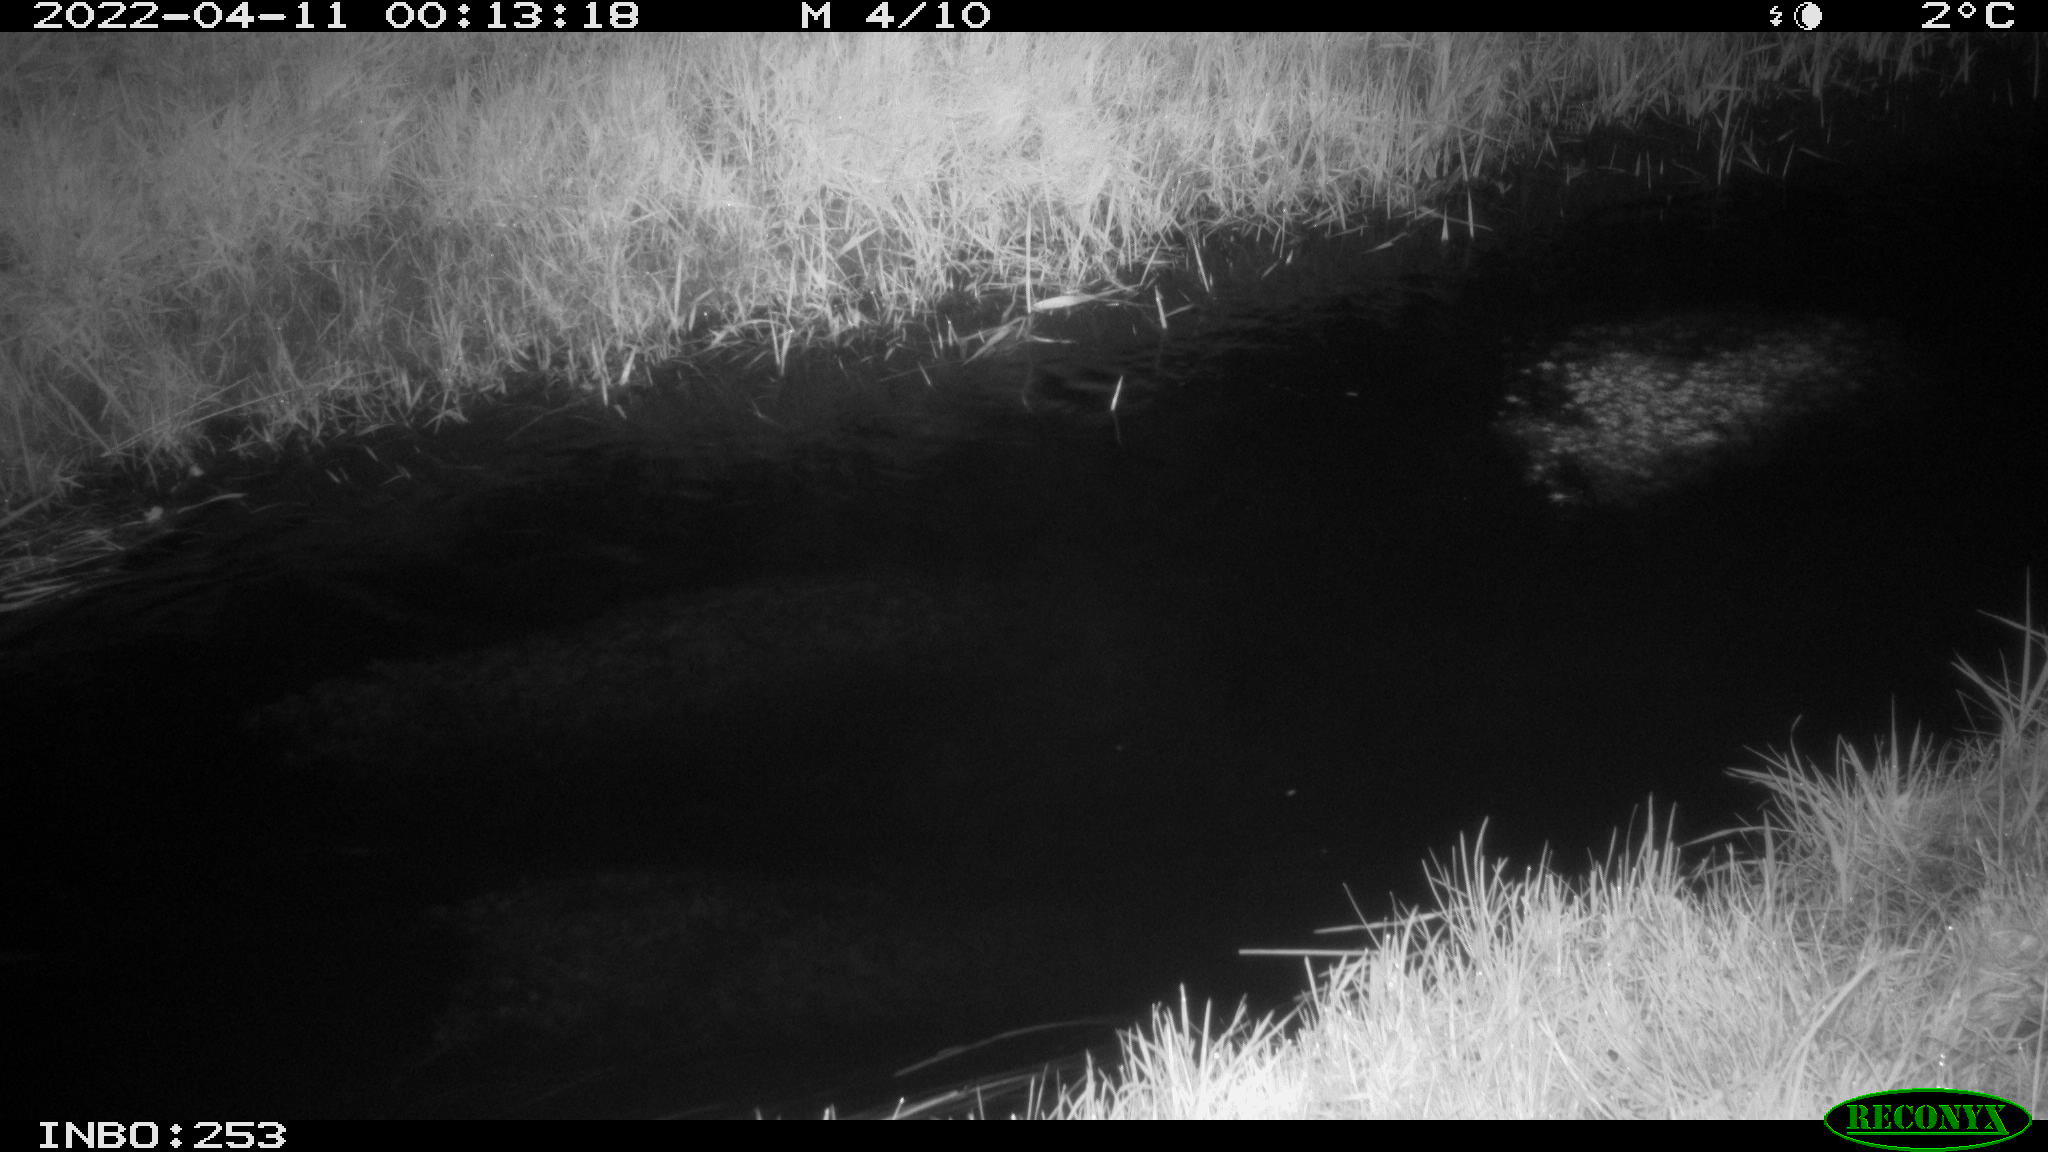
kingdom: Animalia
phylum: Chordata
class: Aves
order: Anseriformes
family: Anatidae
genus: Anas
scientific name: Anas platyrhynchos
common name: Mallard
